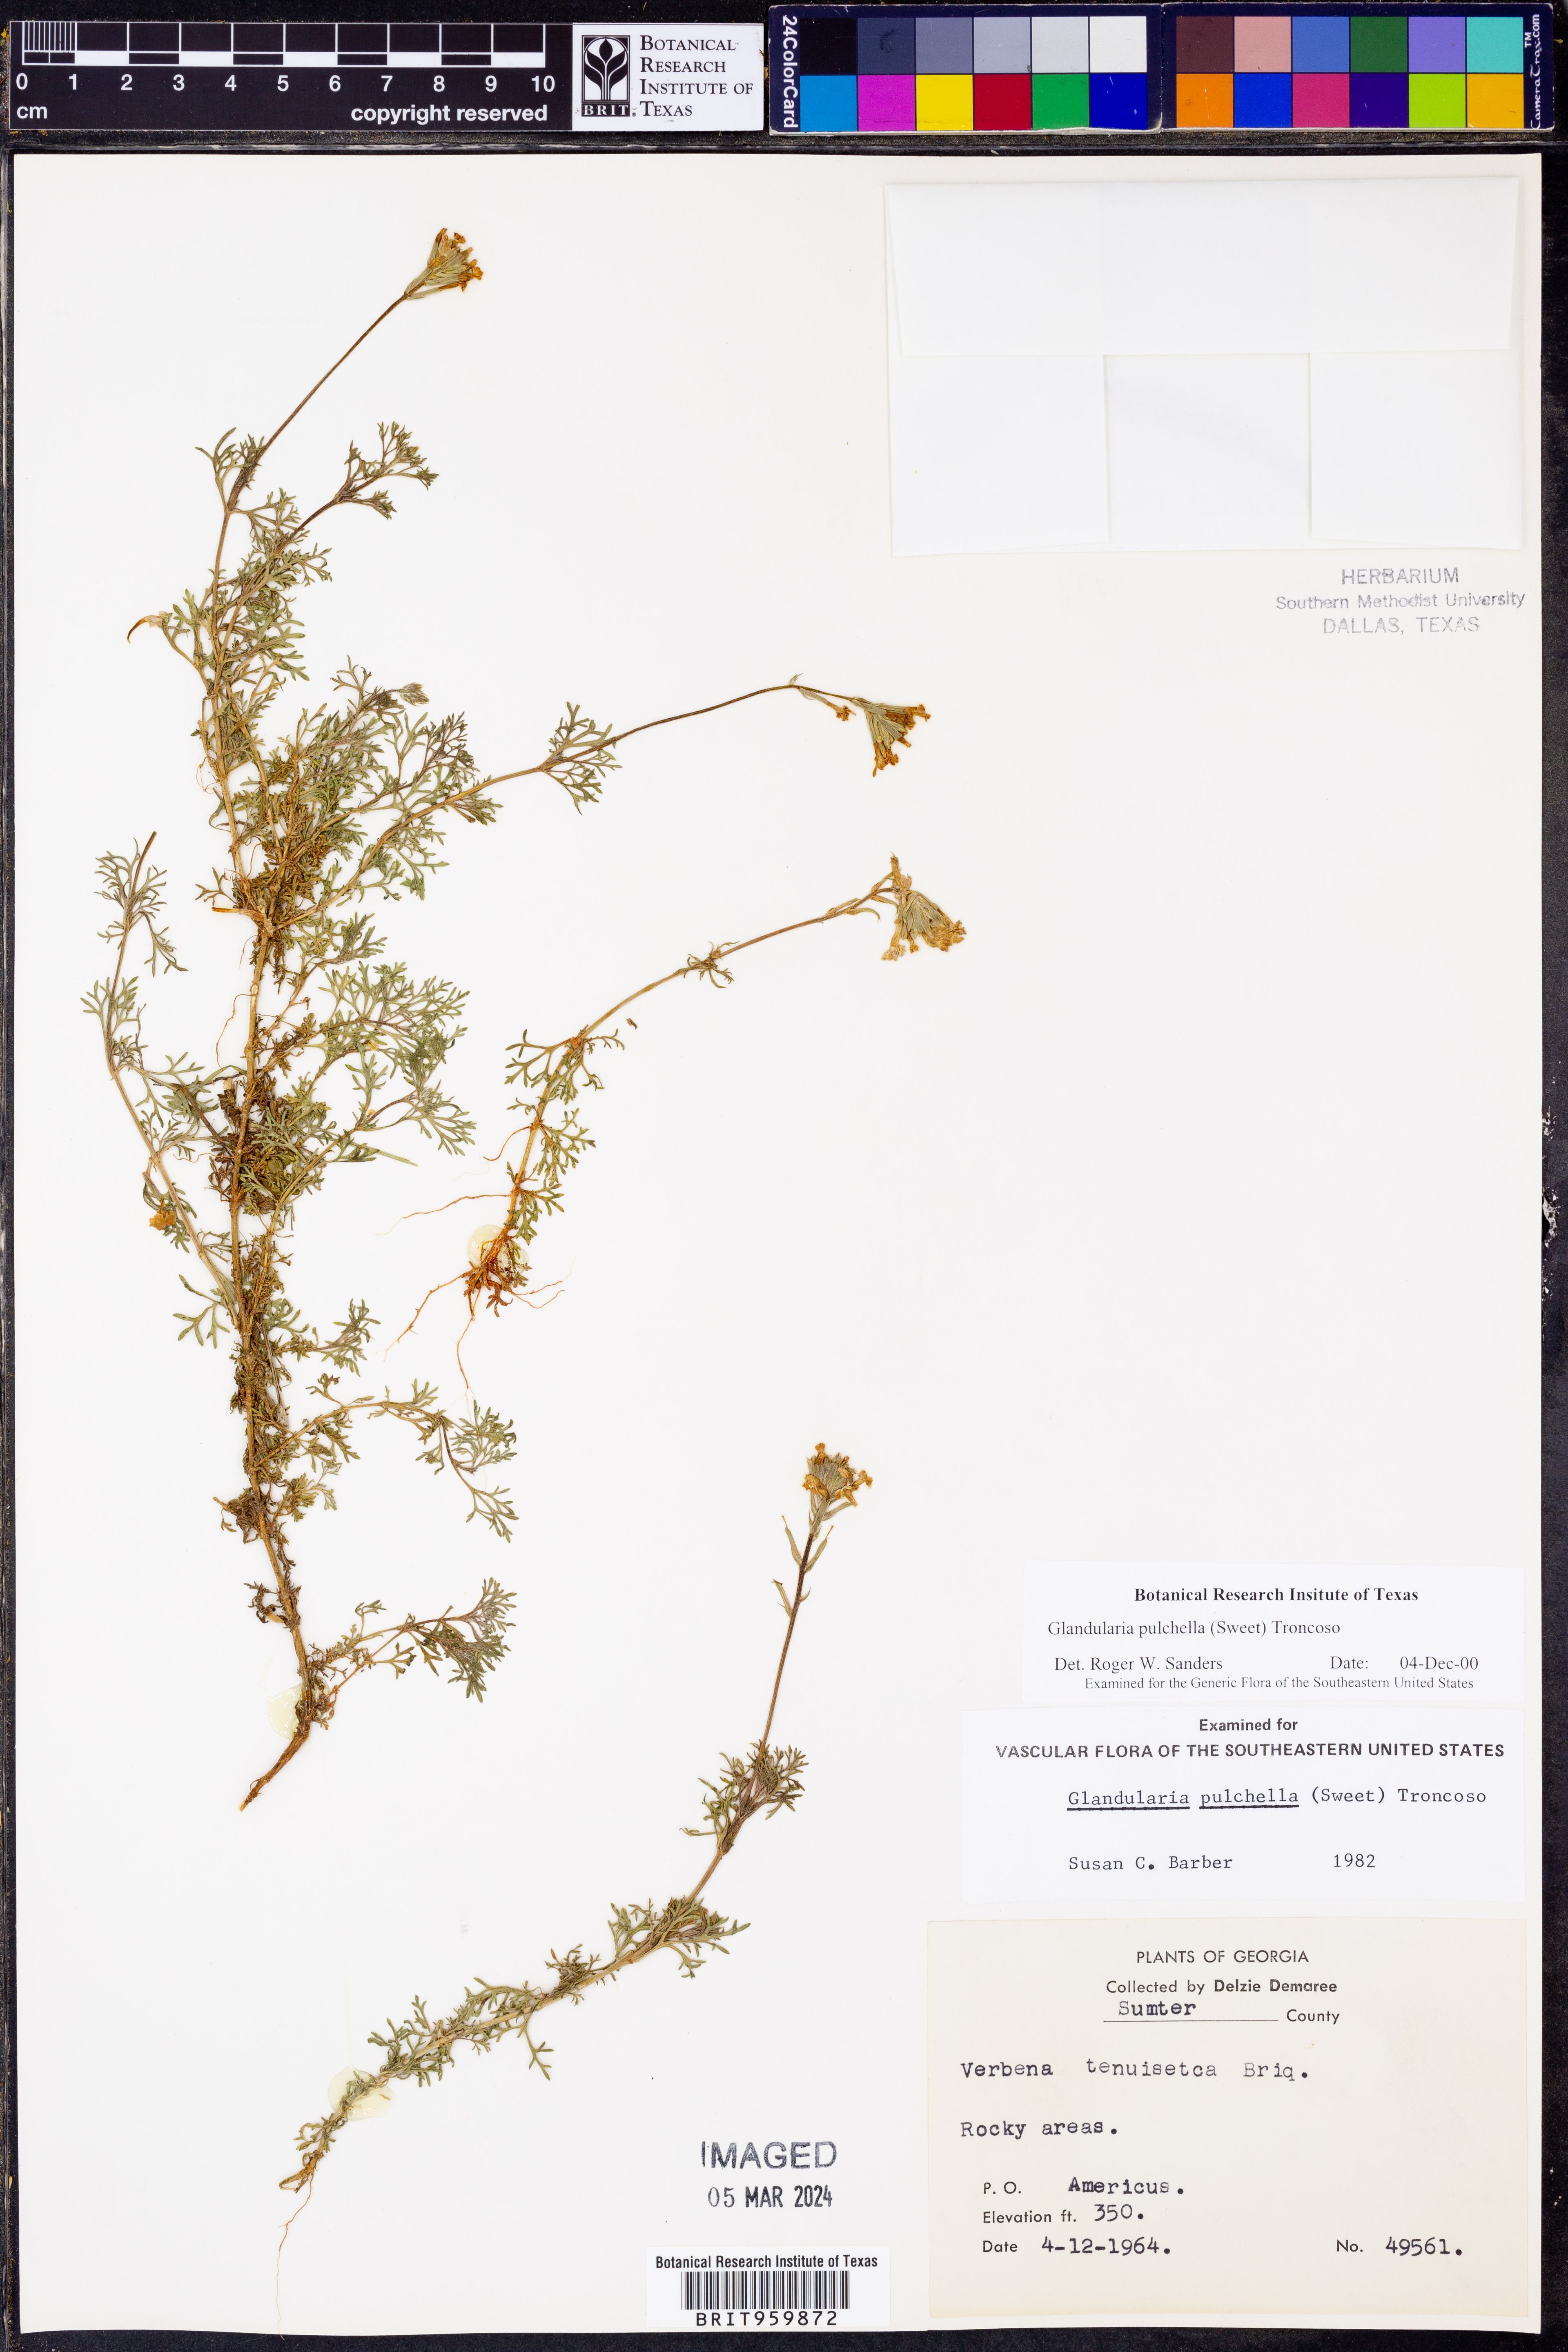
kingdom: Plantae
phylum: Tracheophyta
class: Magnoliopsida
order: Lamiales
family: Verbenaceae
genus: Verbena
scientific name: Verbena tenera
